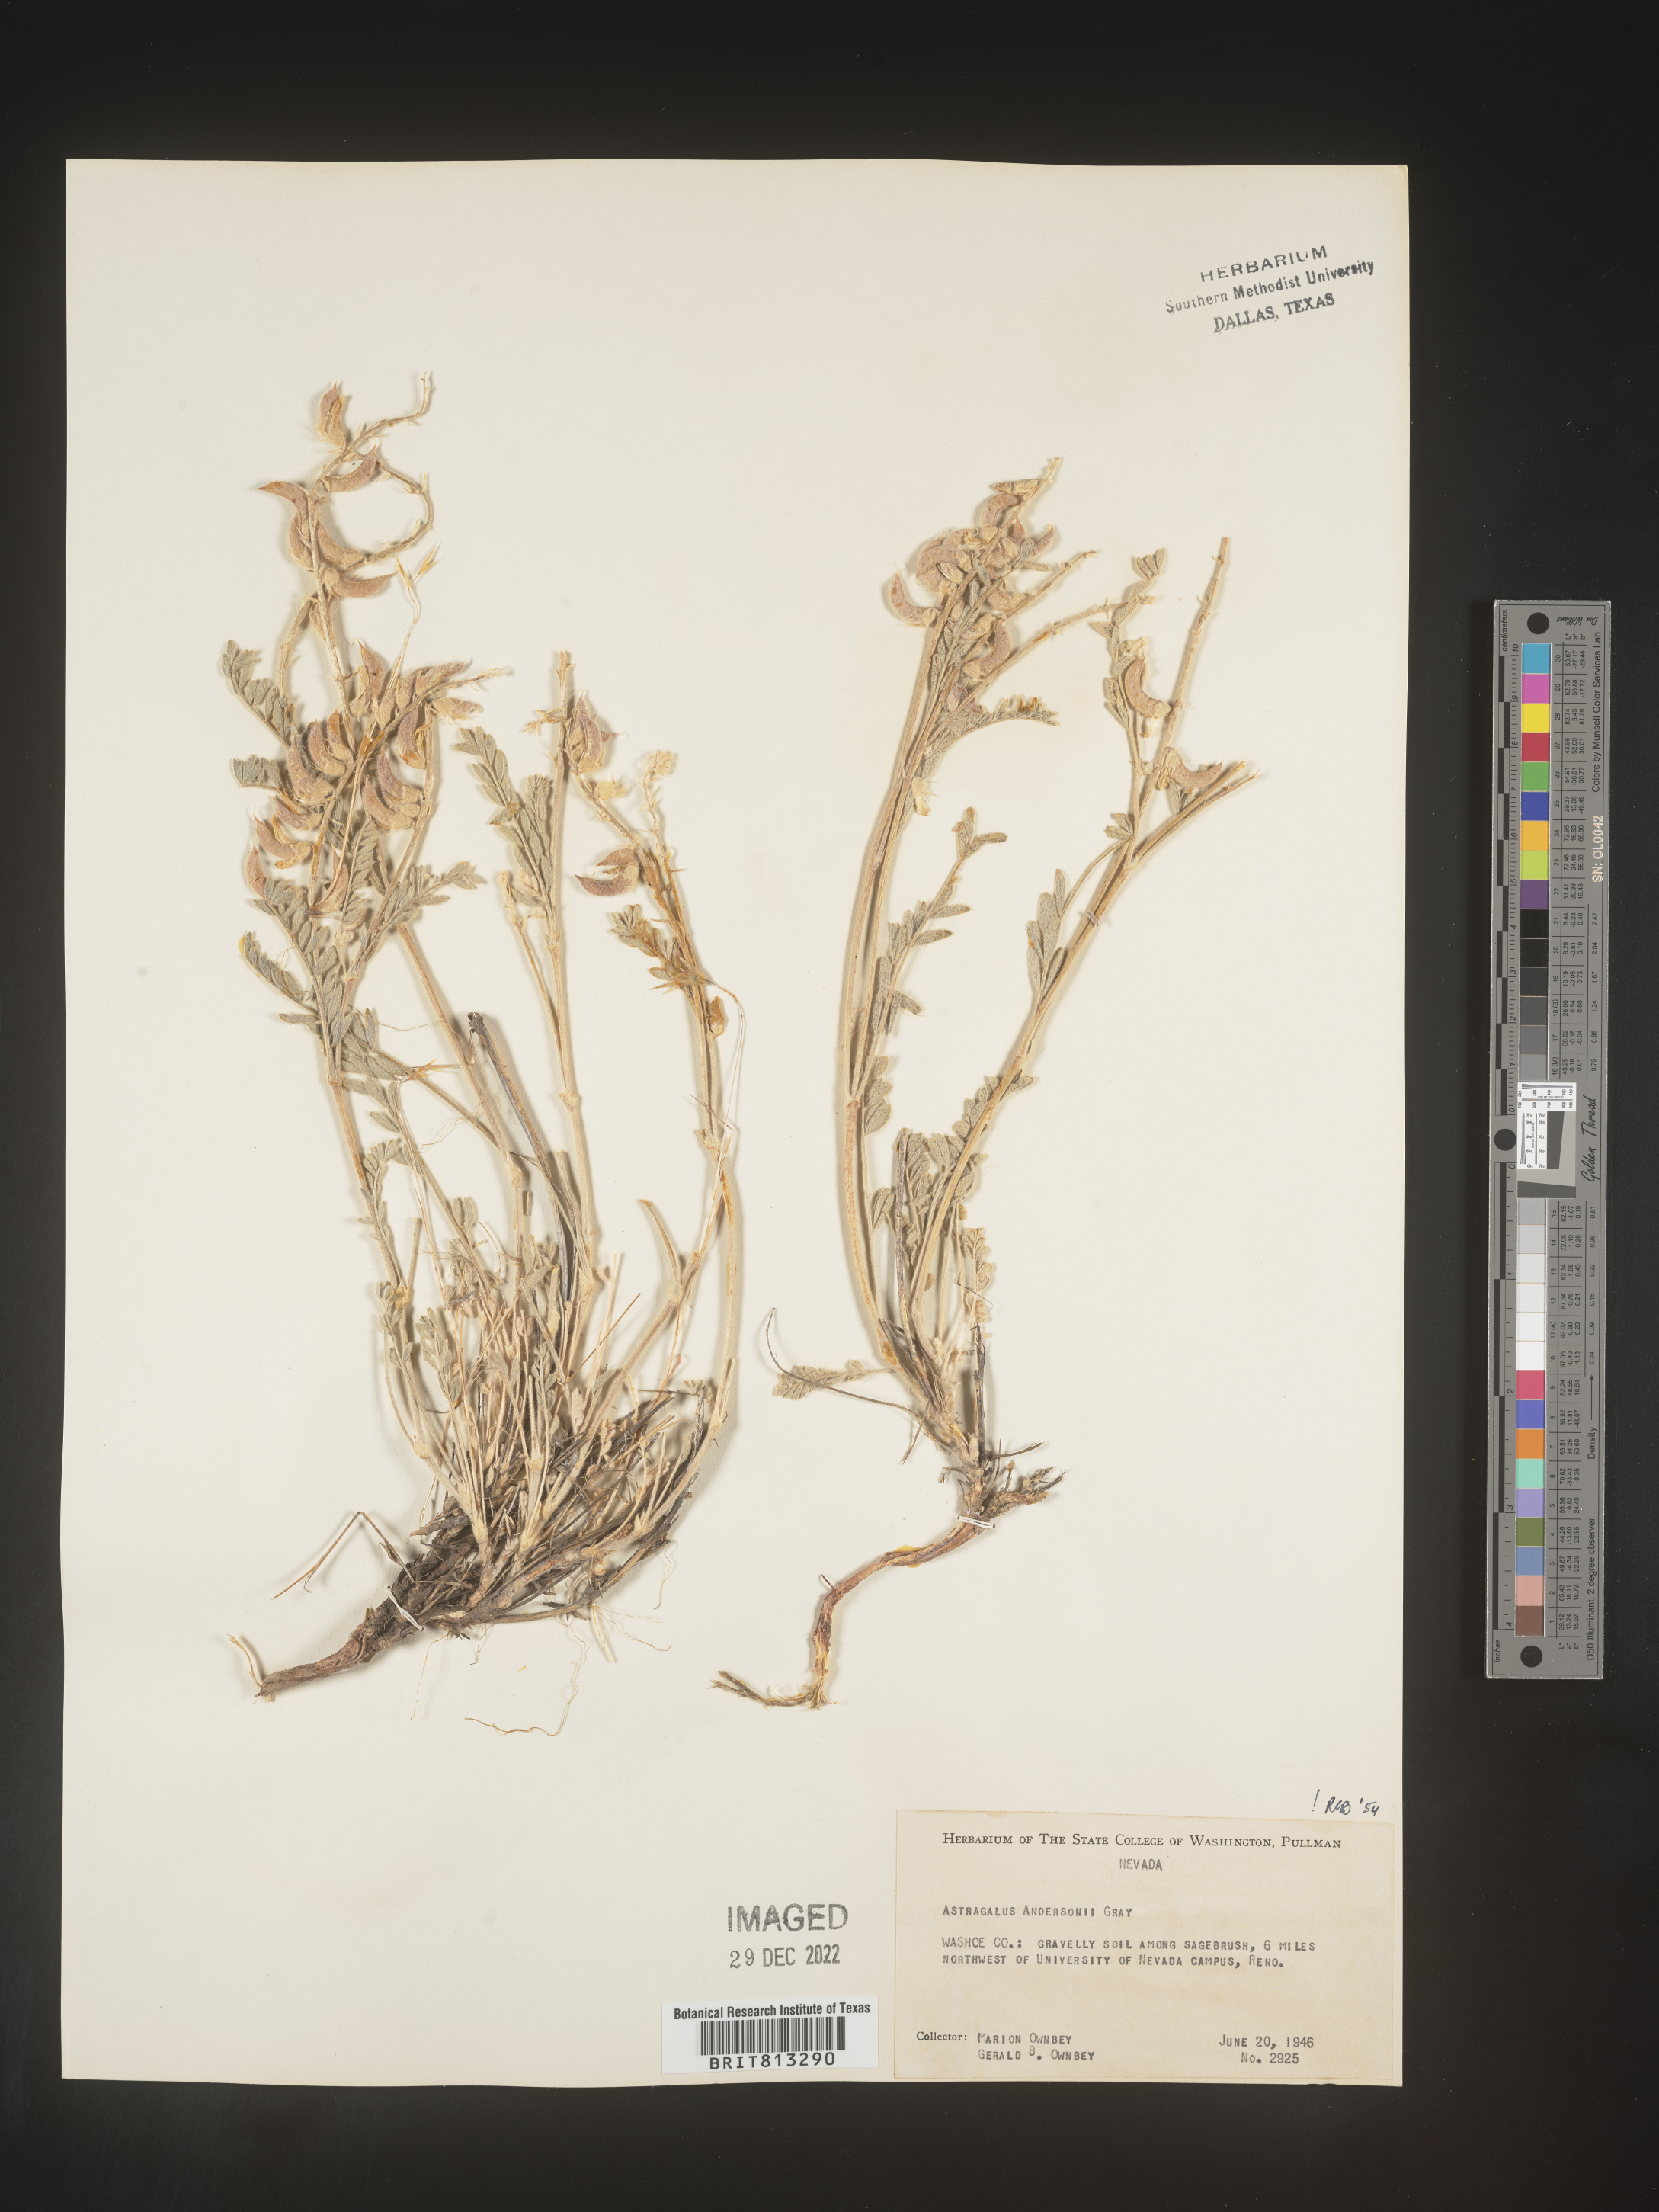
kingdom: Plantae
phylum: Tracheophyta
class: Magnoliopsida
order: Fabales
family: Fabaceae
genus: Astragalus
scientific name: Astragalus
